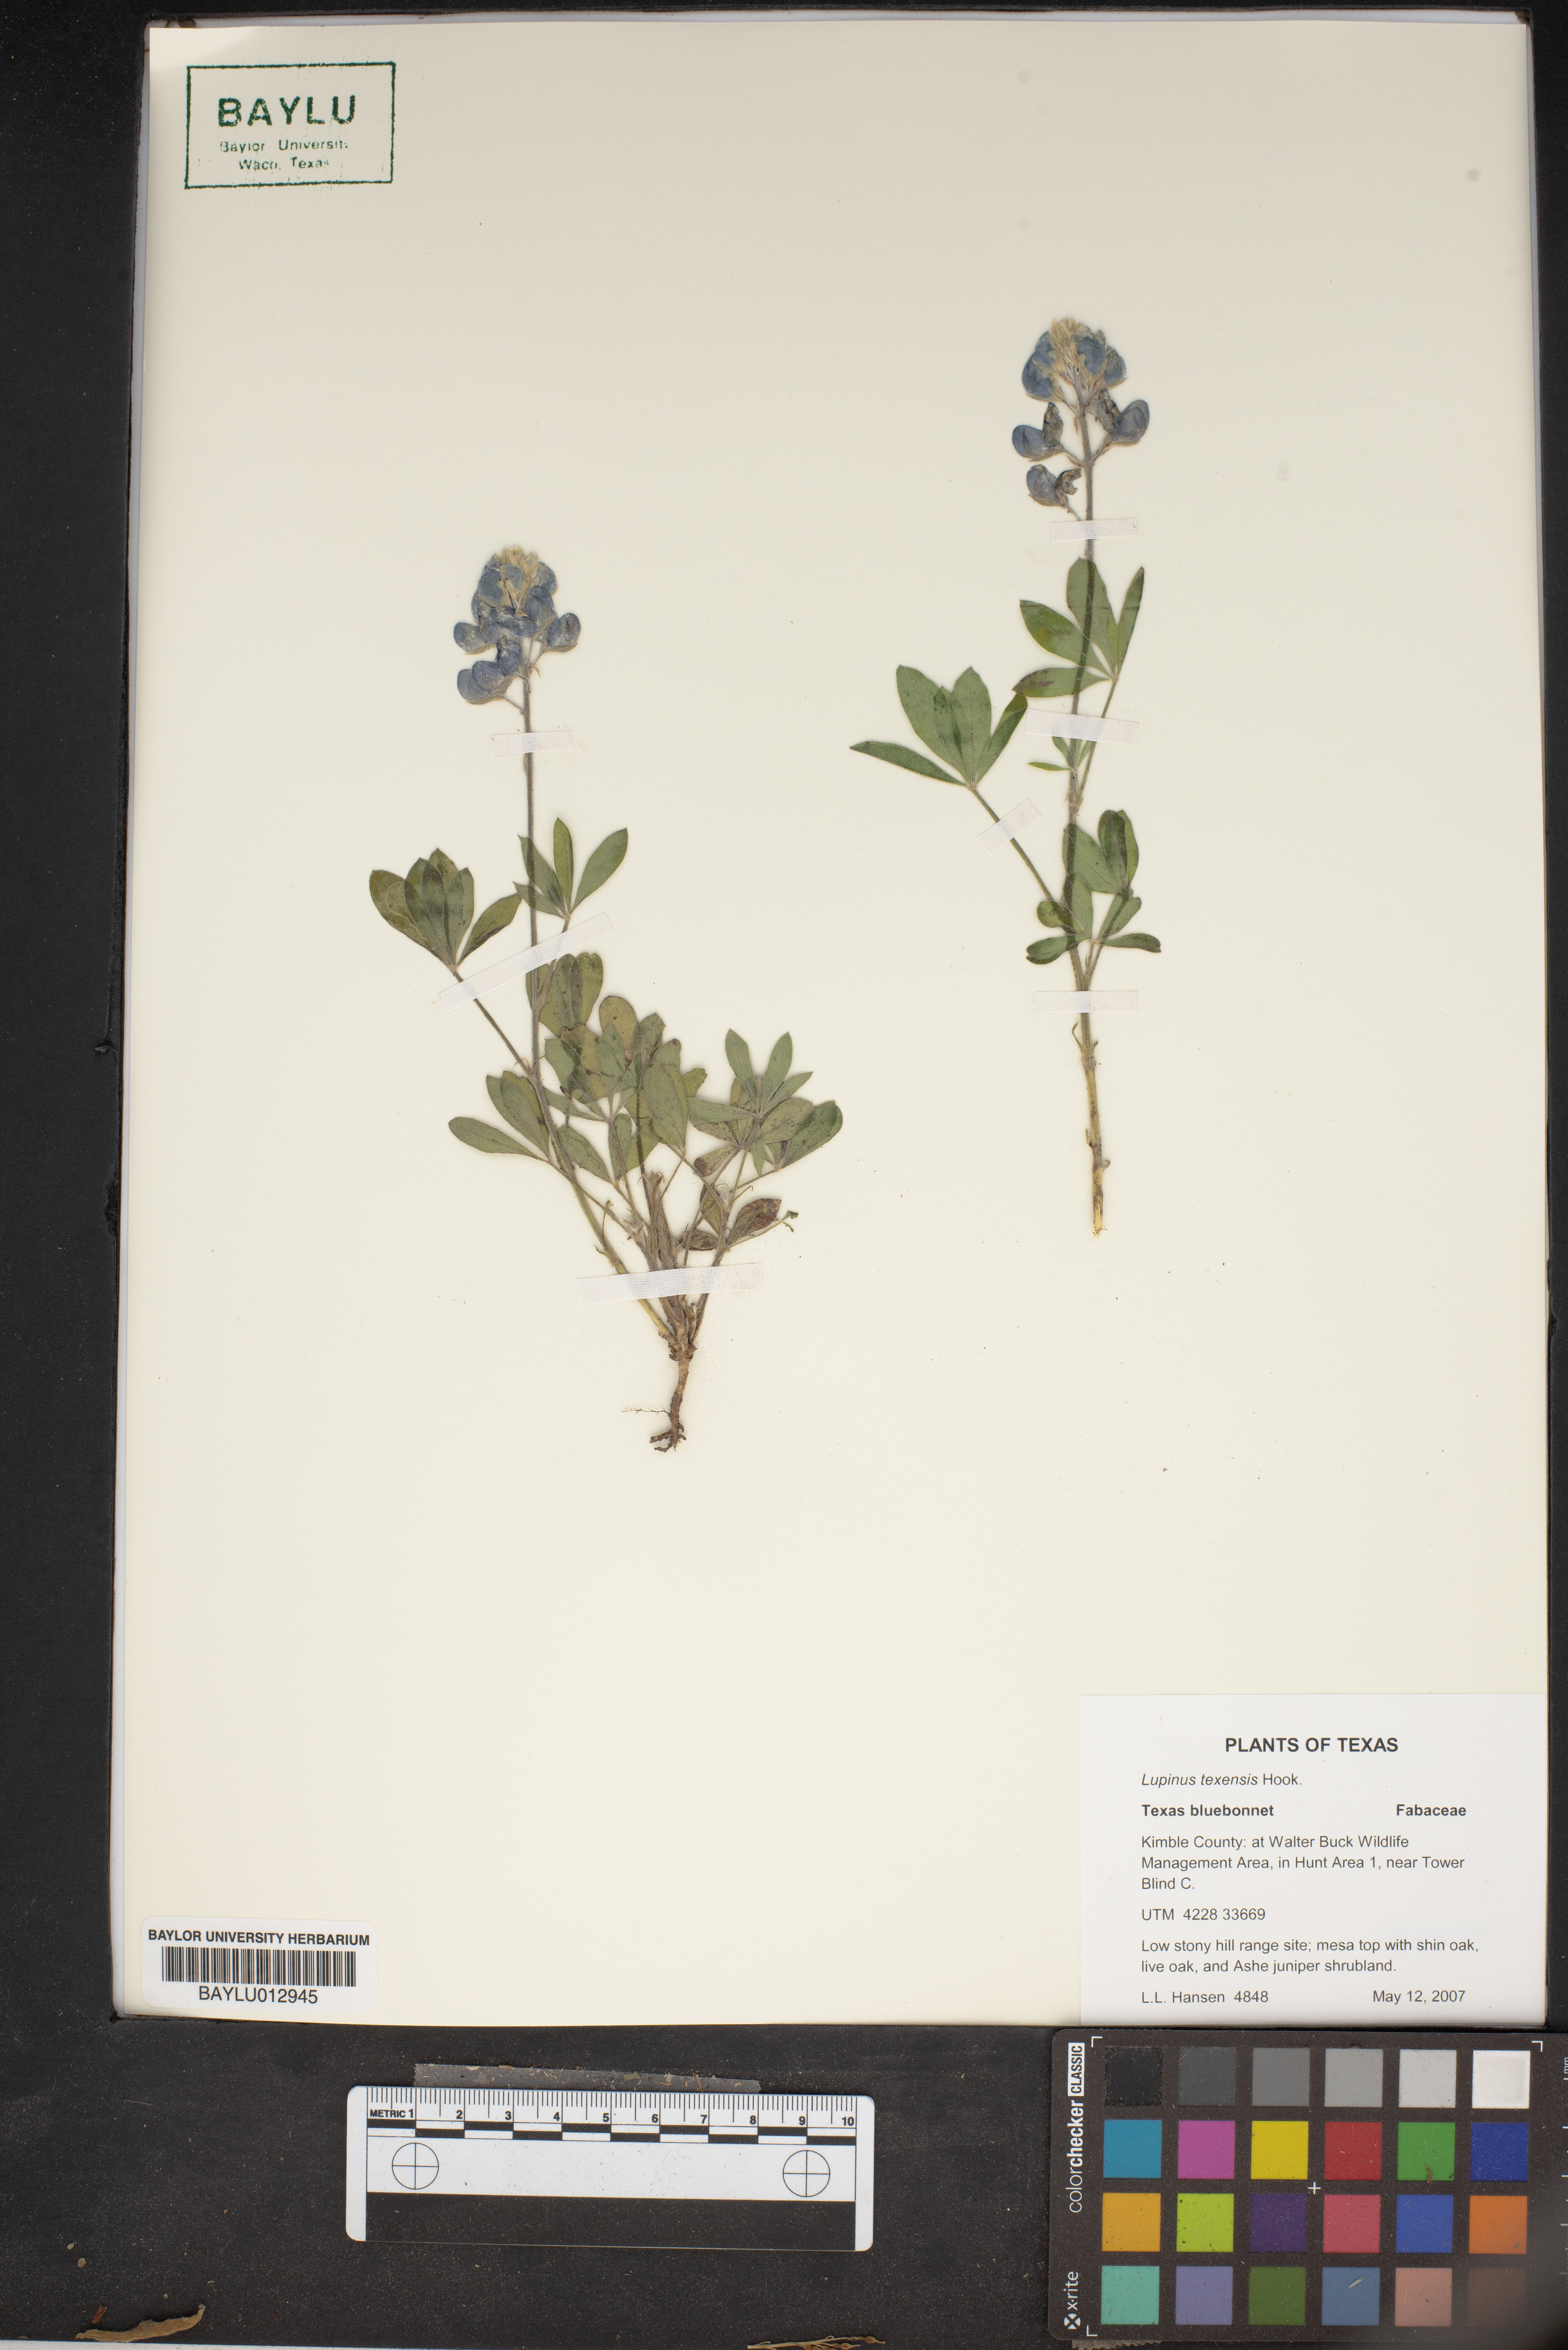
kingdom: Plantae
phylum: Tracheophyta
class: Magnoliopsida
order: Fabales
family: Fabaceae
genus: Lupinus
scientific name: Lupinus texensis
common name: Texas bluebonnet
